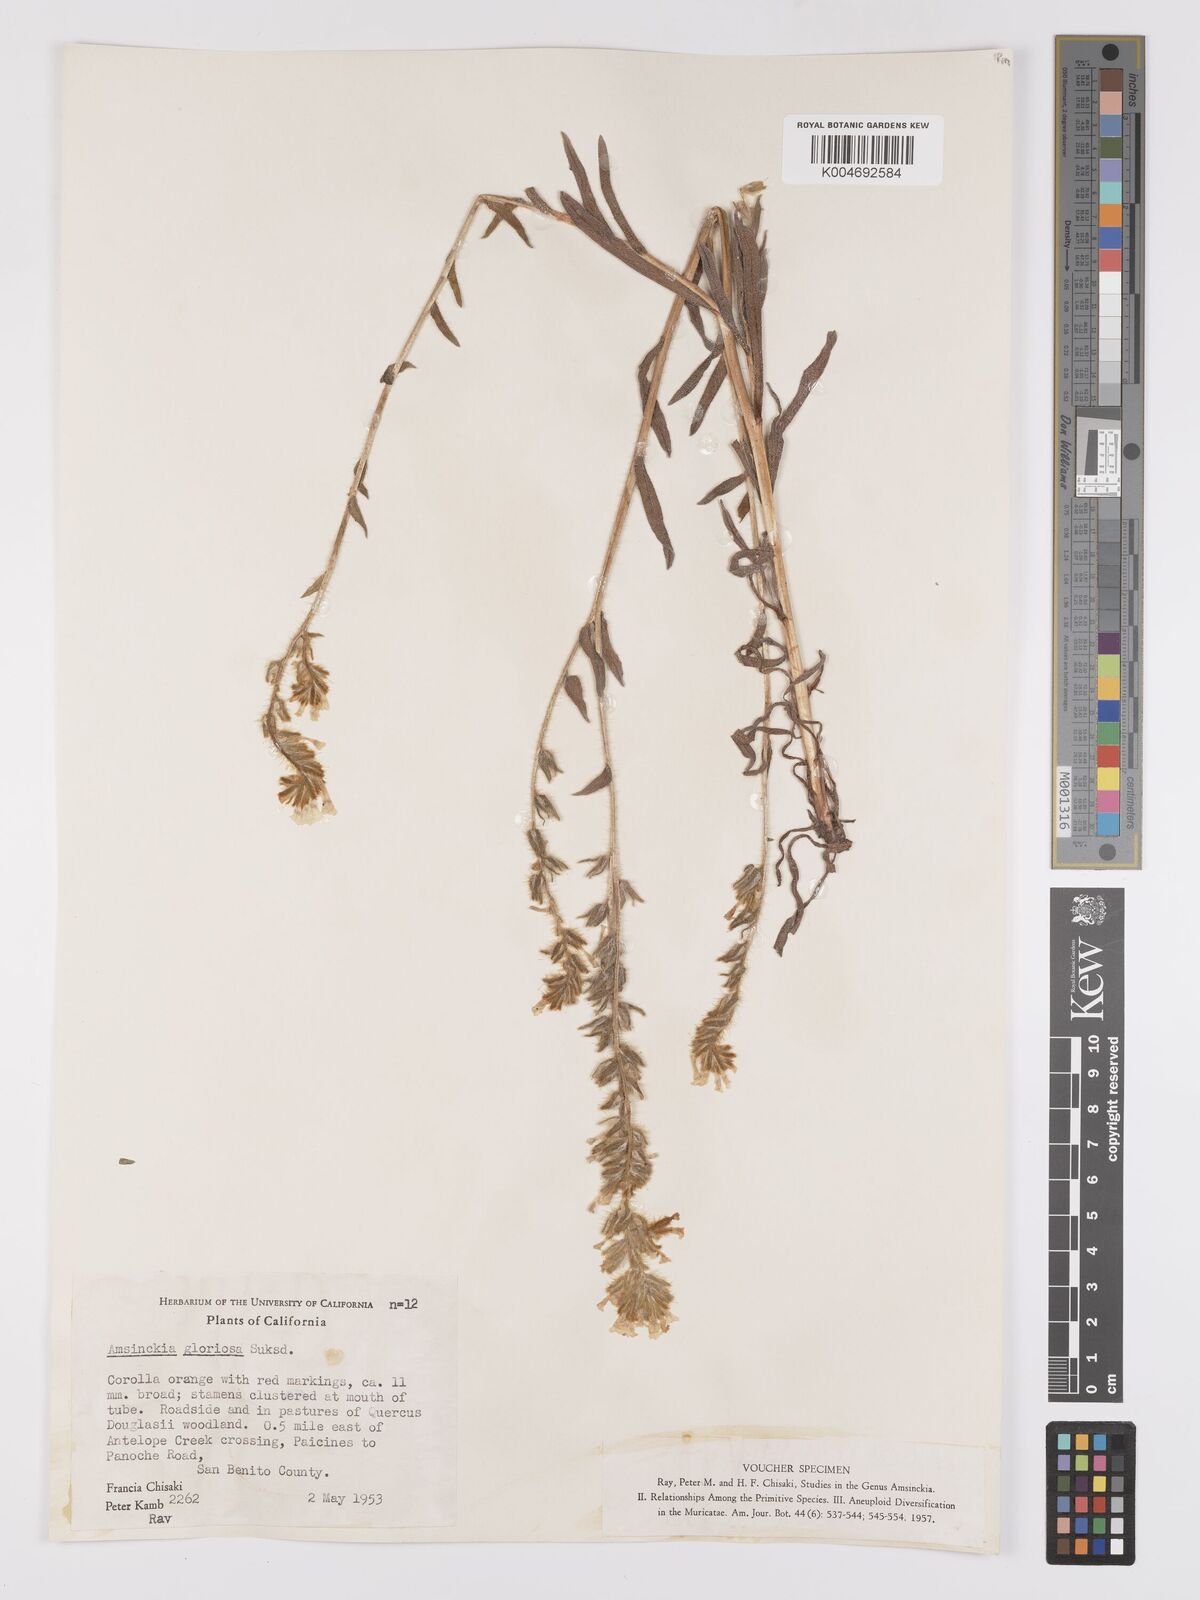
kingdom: Plantae
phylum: Tracheophyta
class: Magnoliopsida
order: Boraginales
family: Boraginaceae
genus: Amsinckia
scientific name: Amsinckia tessellata
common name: Tessellate fiddleneck
